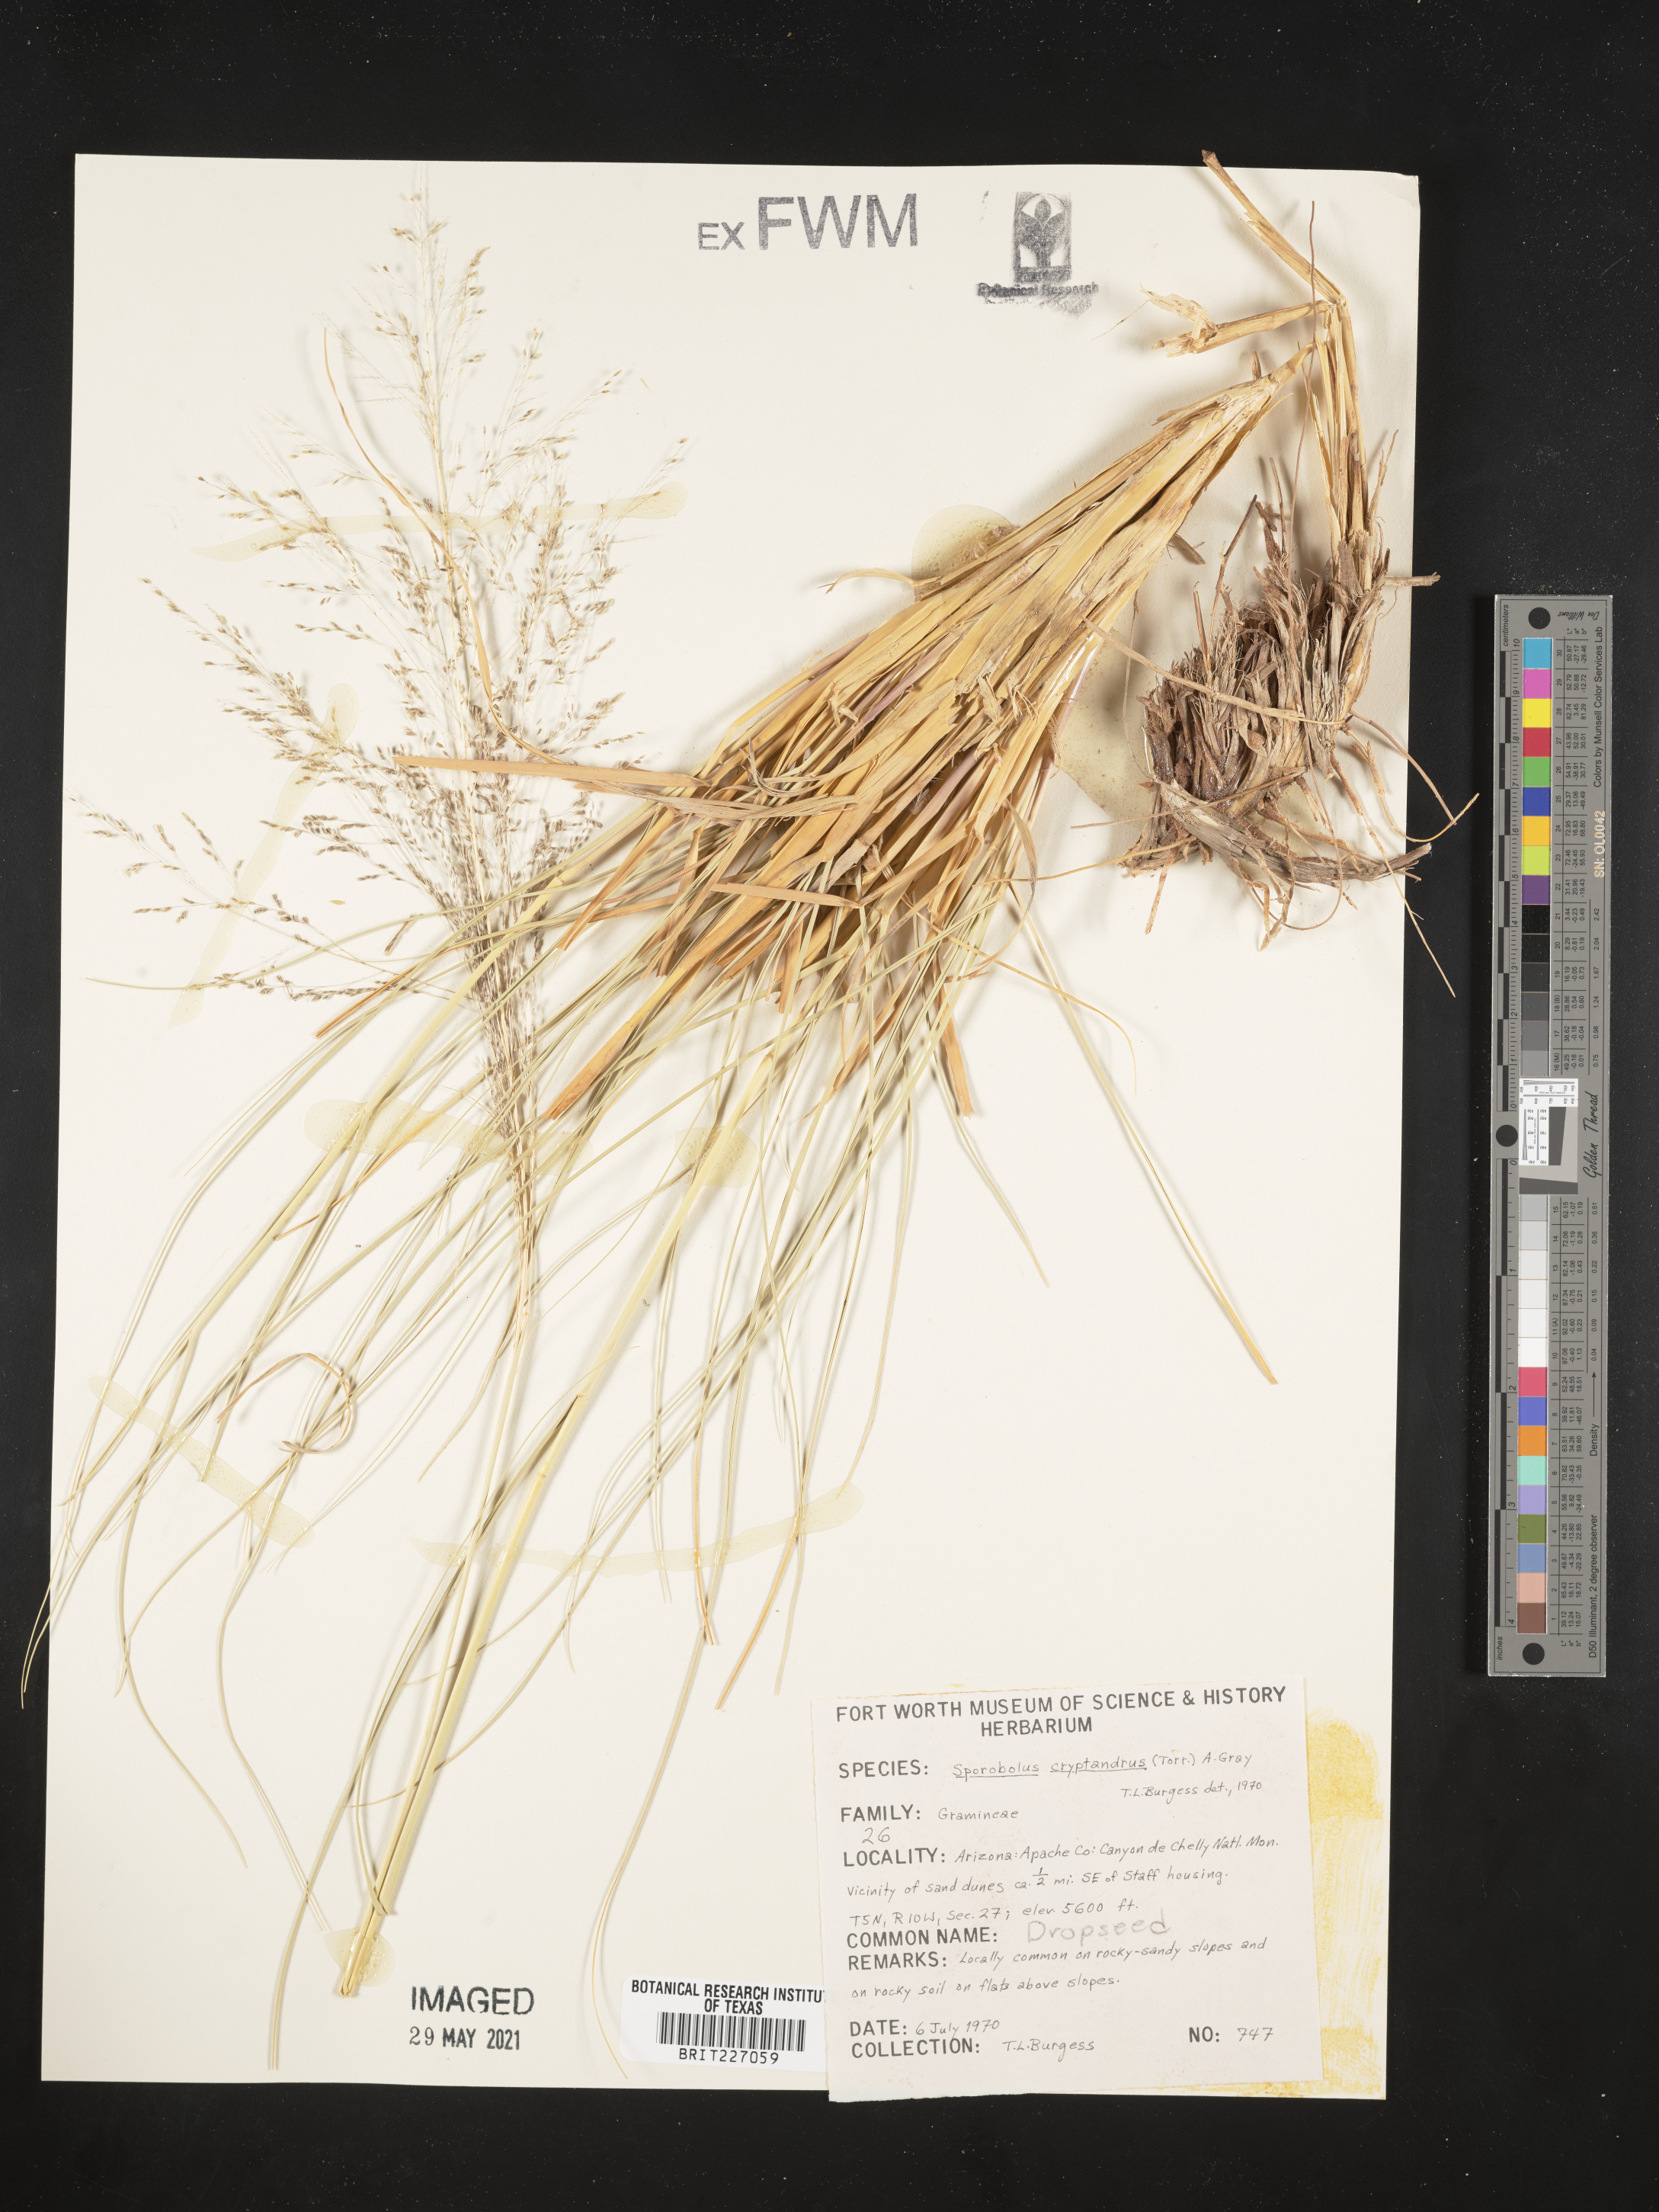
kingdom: Plantae
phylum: Tracheophyta
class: Liliopsida
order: Poales
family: Poaceae
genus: Sporobolus
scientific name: Sporobolus cryptandrus
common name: Sand dropseed
